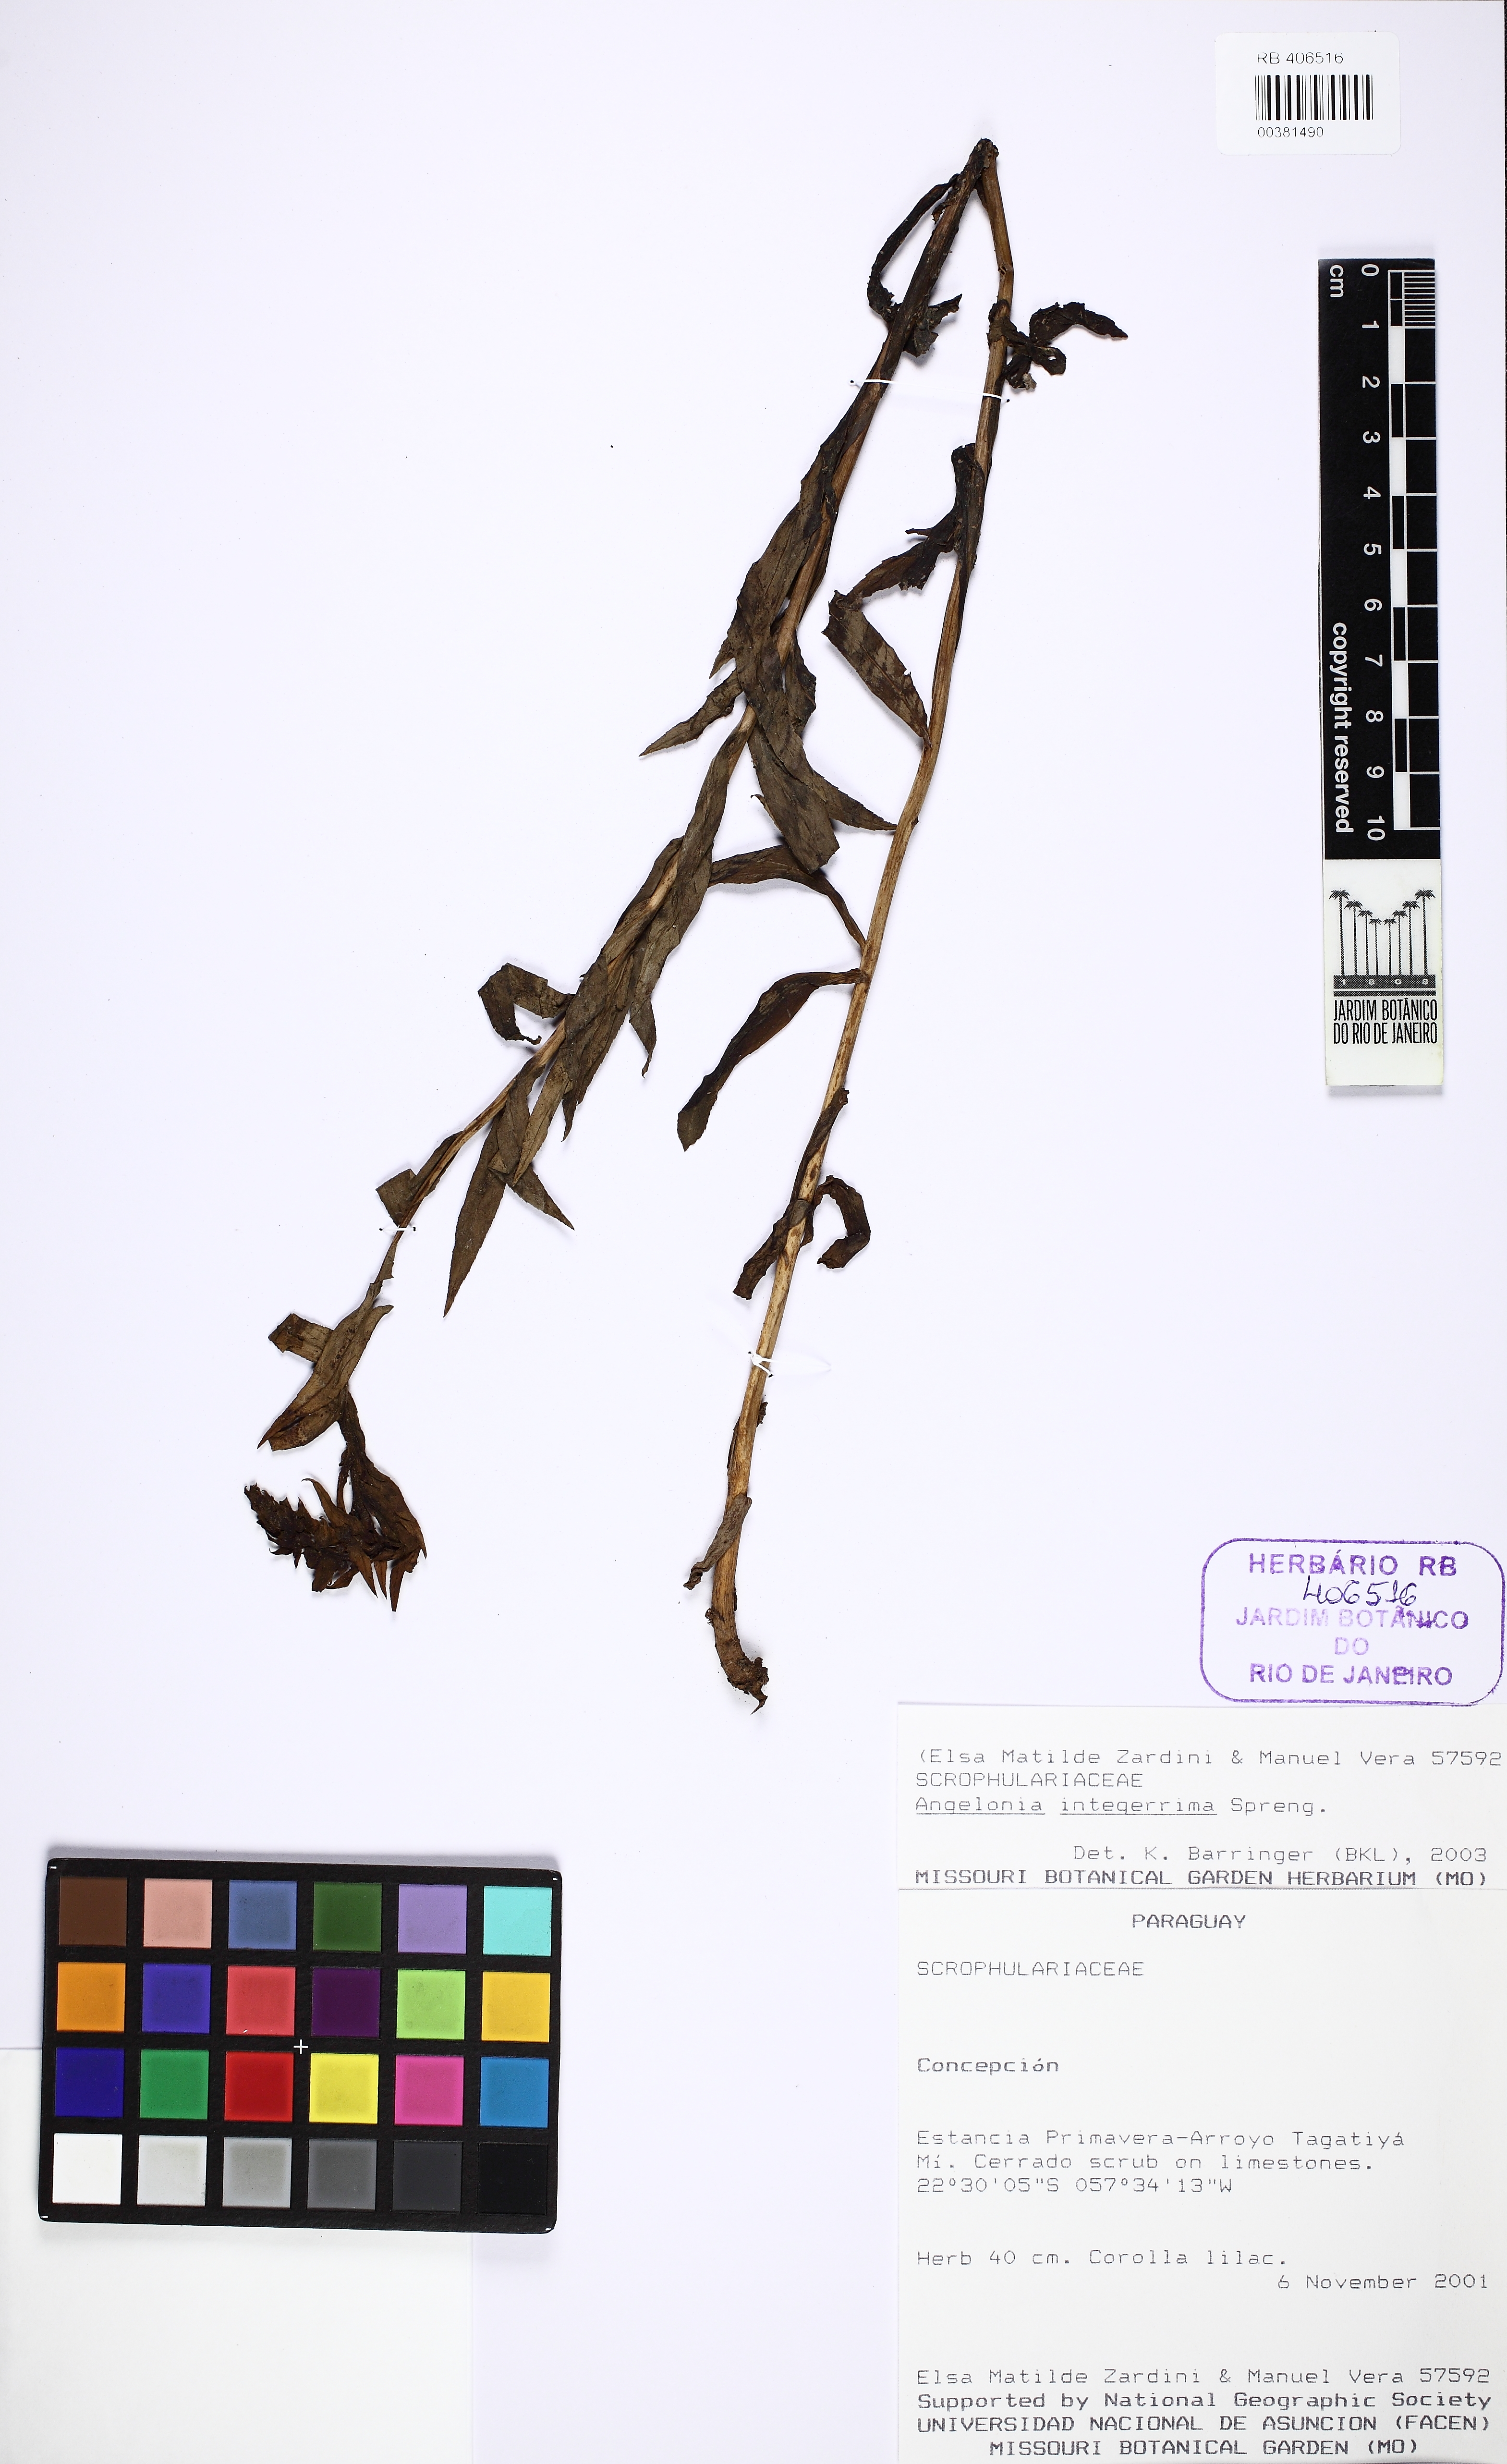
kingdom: Plantae
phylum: Tracheophyta
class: Magnoliopsida
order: Lamiales
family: Plantaginaceae
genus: Angelonia
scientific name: Angelonia integerrima
